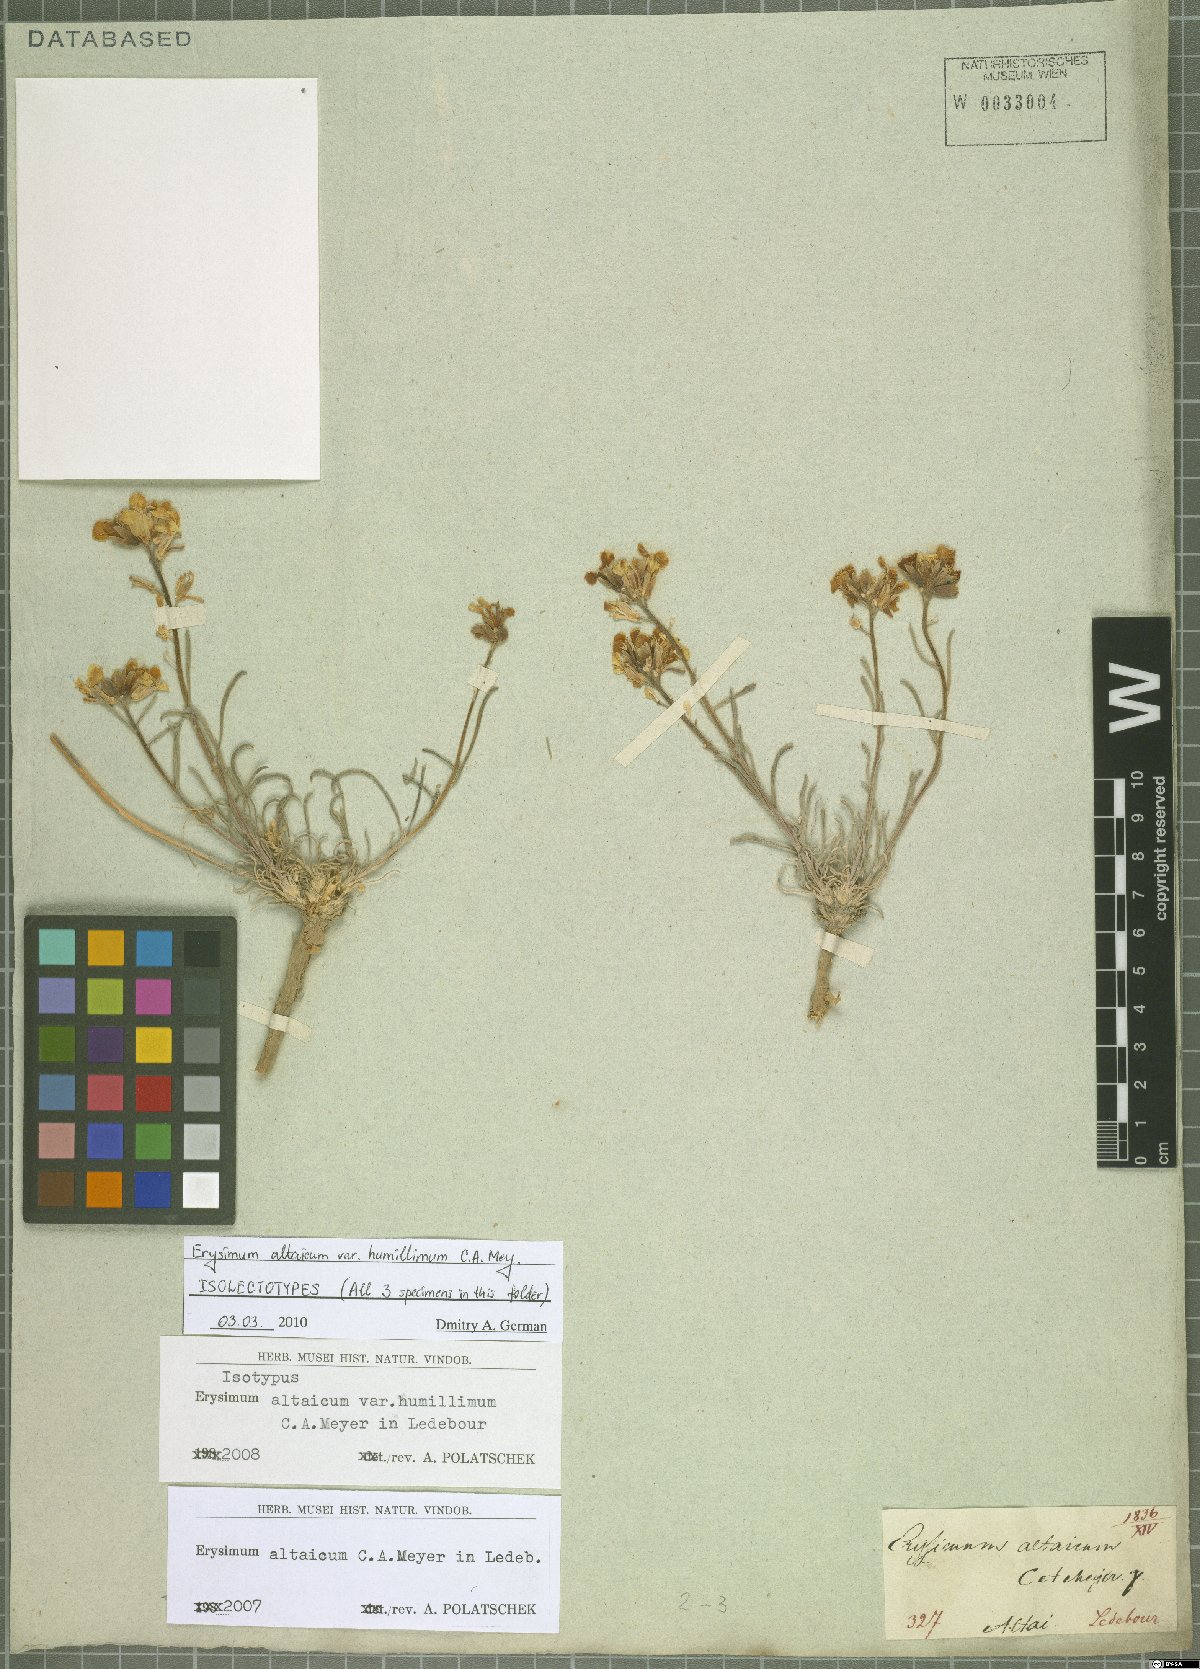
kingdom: Plantae
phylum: Tracheophyta
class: Magnoliopsida
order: Brassicales
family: Brassicaceae
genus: Erysimum
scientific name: Erysimum altaicum
